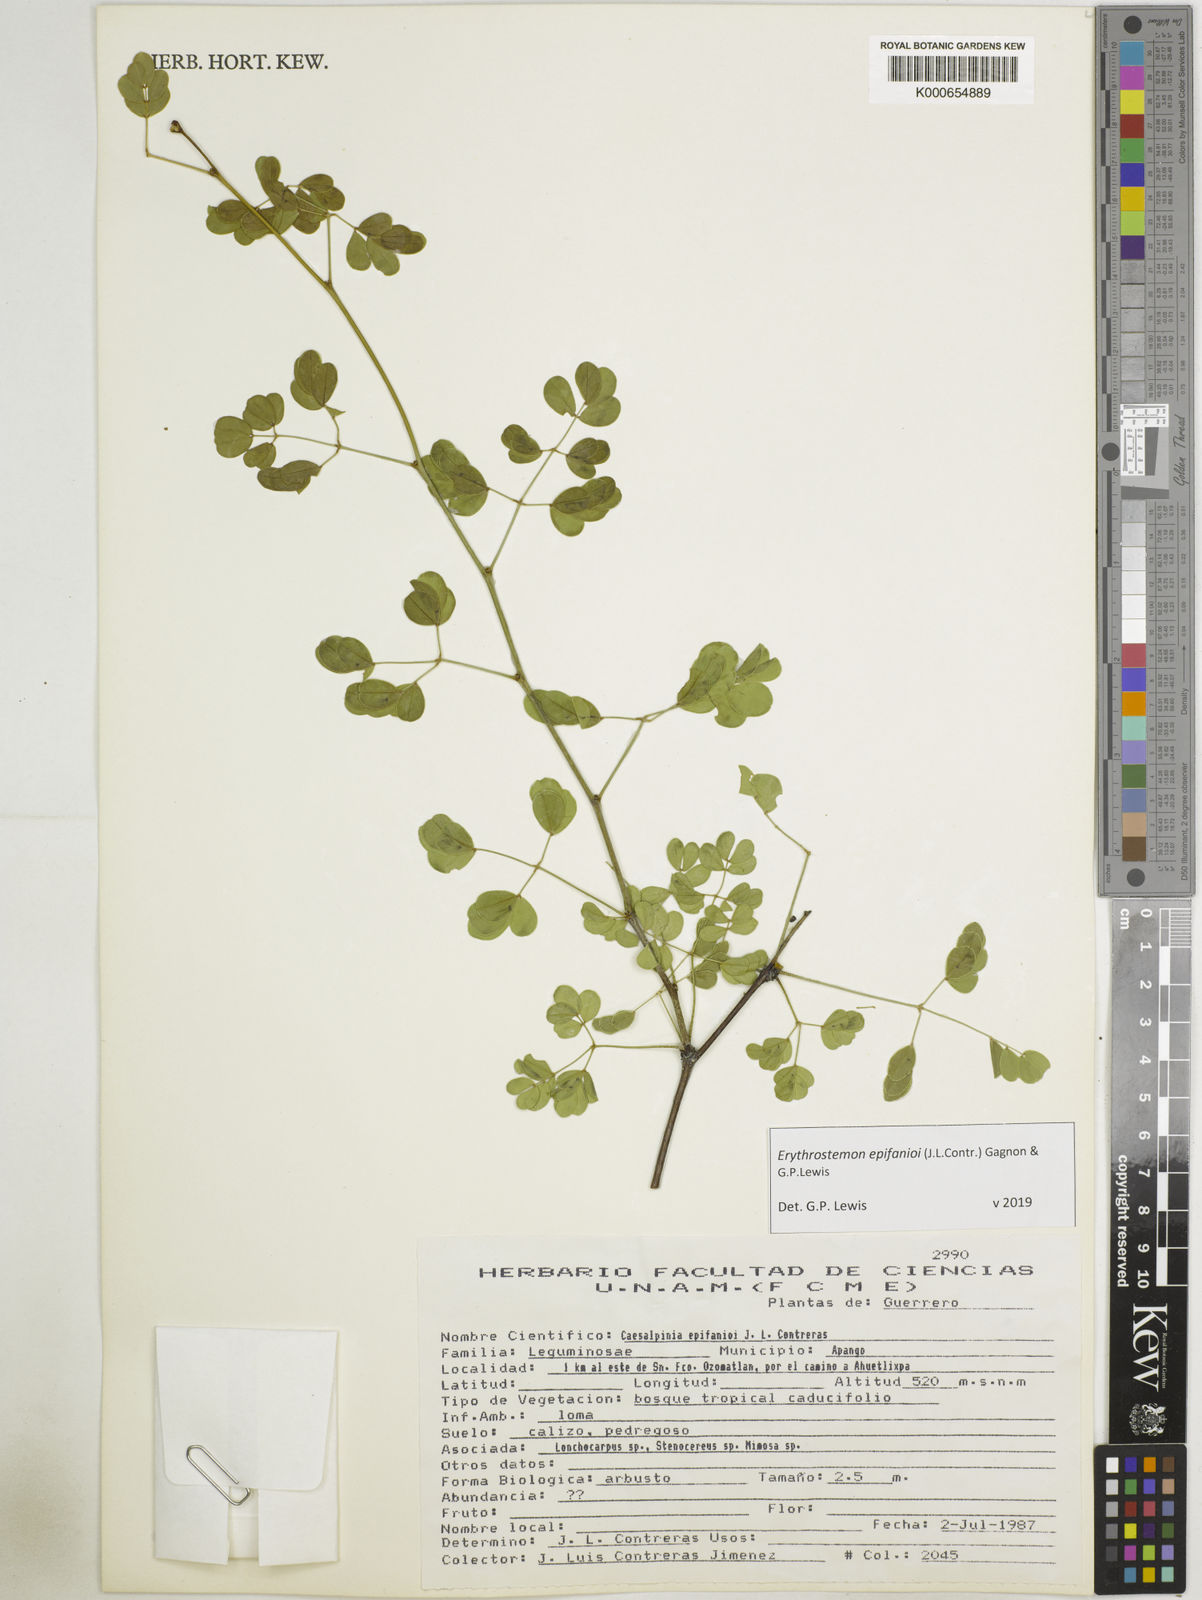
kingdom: Plantae
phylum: Tracheophyta
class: Magnoliopsida
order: Fabales
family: Fabaceae
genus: Erythrostemon
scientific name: Erythrostemon epifanioi
